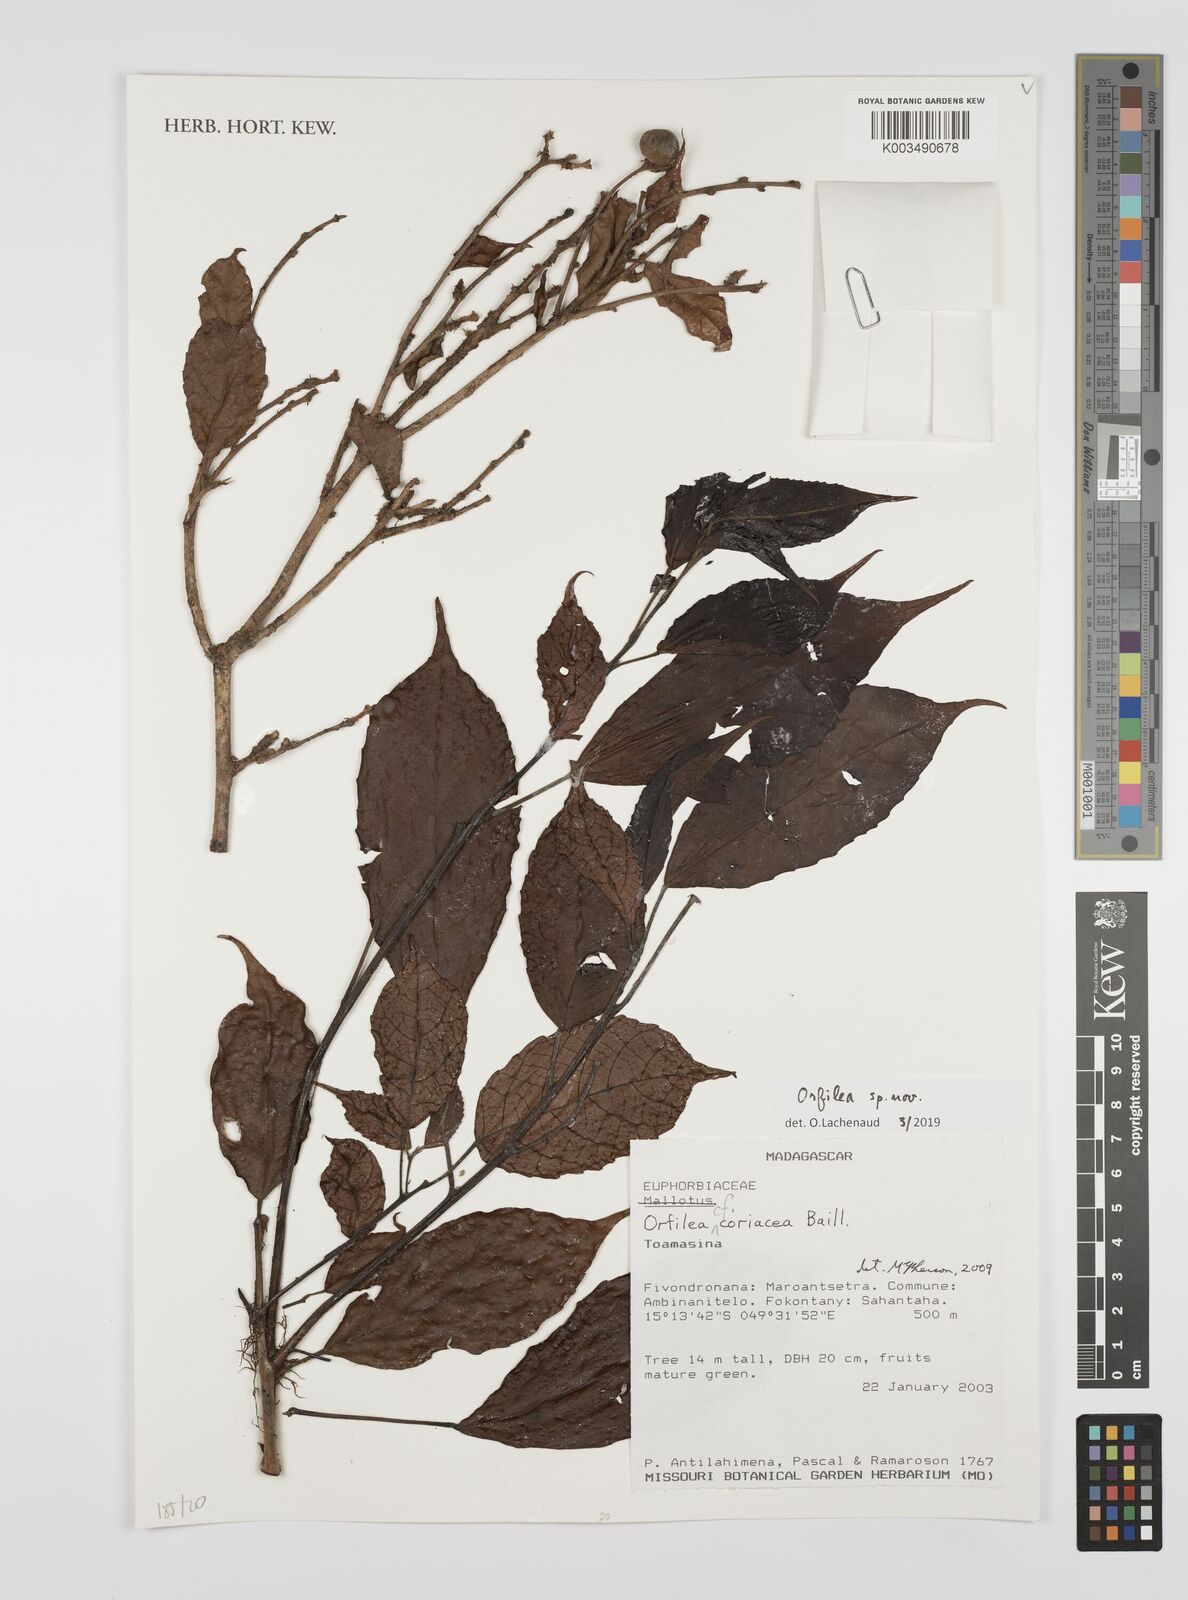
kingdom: Plantae
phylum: Tracheophyta
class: Magnoliopsida
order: Malpighiales
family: Euphorbiaceae
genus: Orfilea
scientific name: Orfilea
